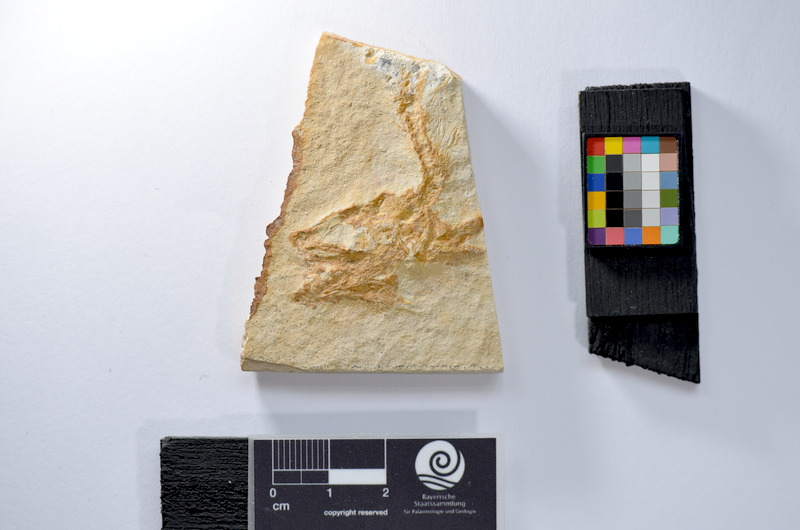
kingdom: Animalia
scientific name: Animalia
